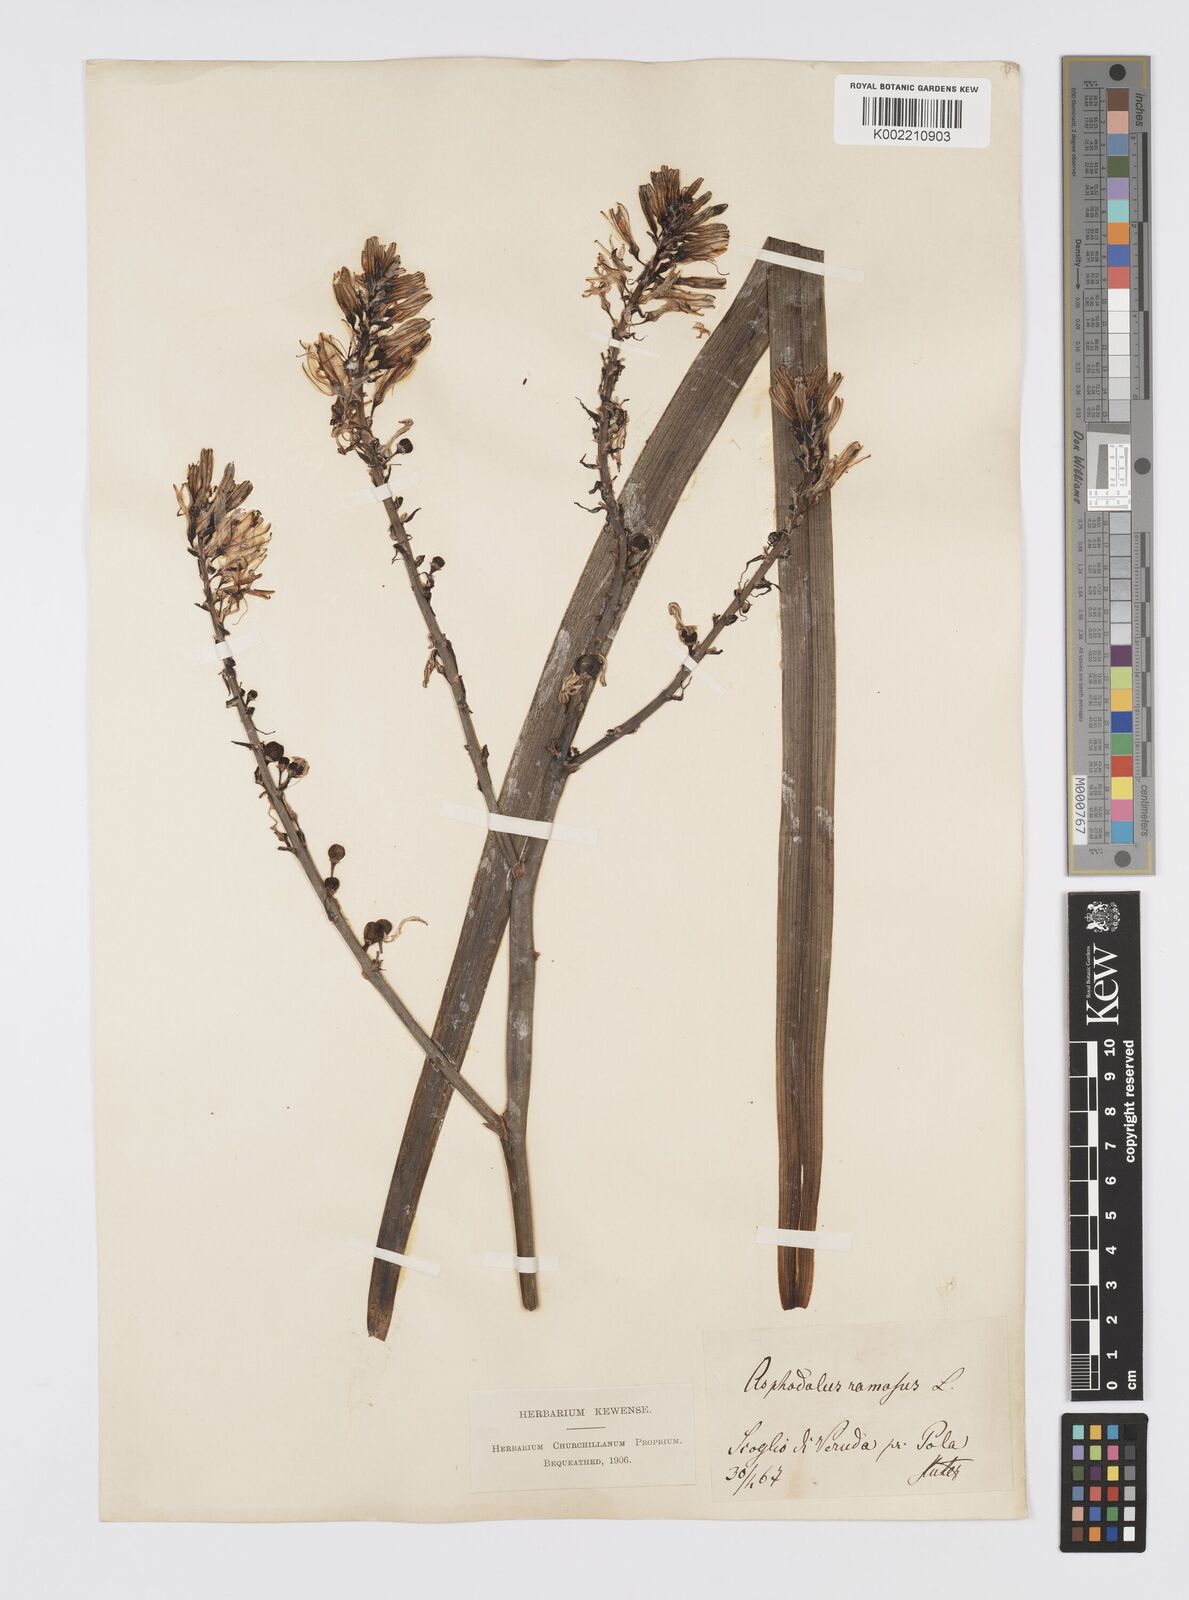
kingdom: Plantae
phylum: Tracheophyta
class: Liliopsida
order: Asparagales
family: Asphodelaceae
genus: Asphodelus
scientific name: Asphodelus ramosus
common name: Silverrod
